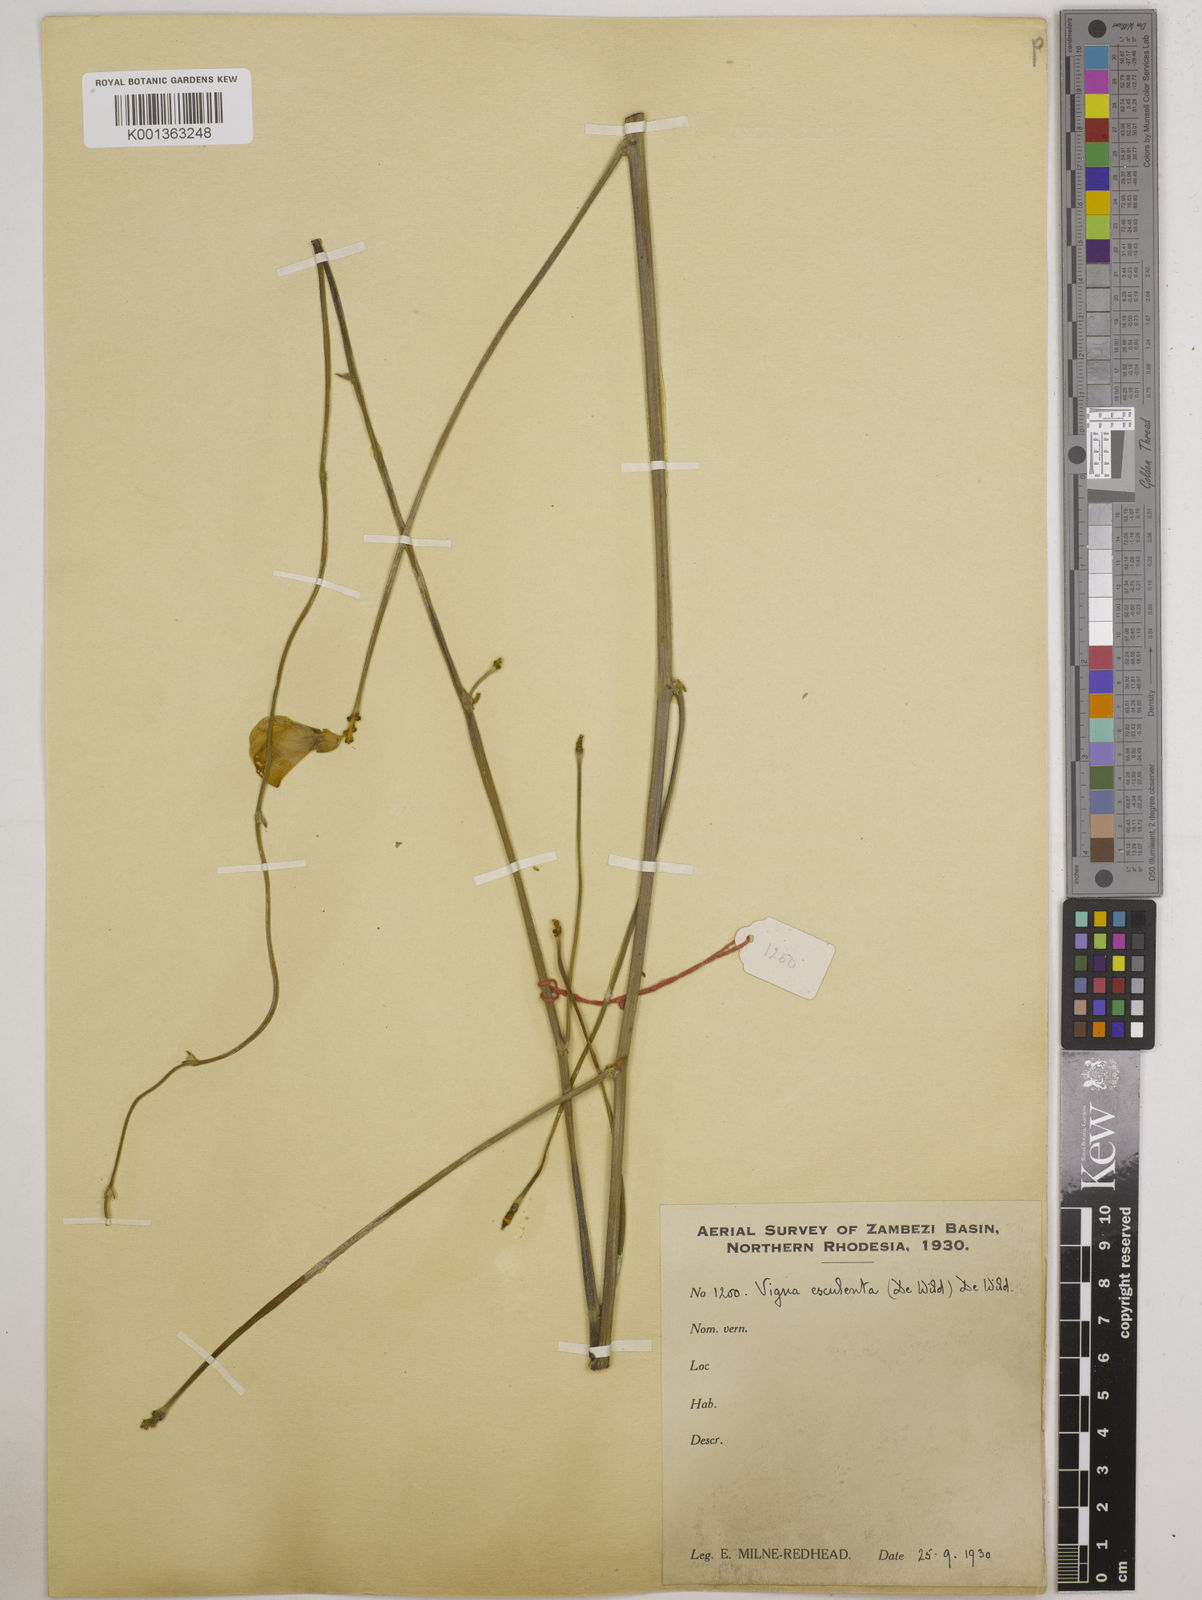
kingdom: Plantae
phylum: Tracheophyta
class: Magnoliopsida
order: Fabales
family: Fabaceae
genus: Vigna
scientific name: Vigna
